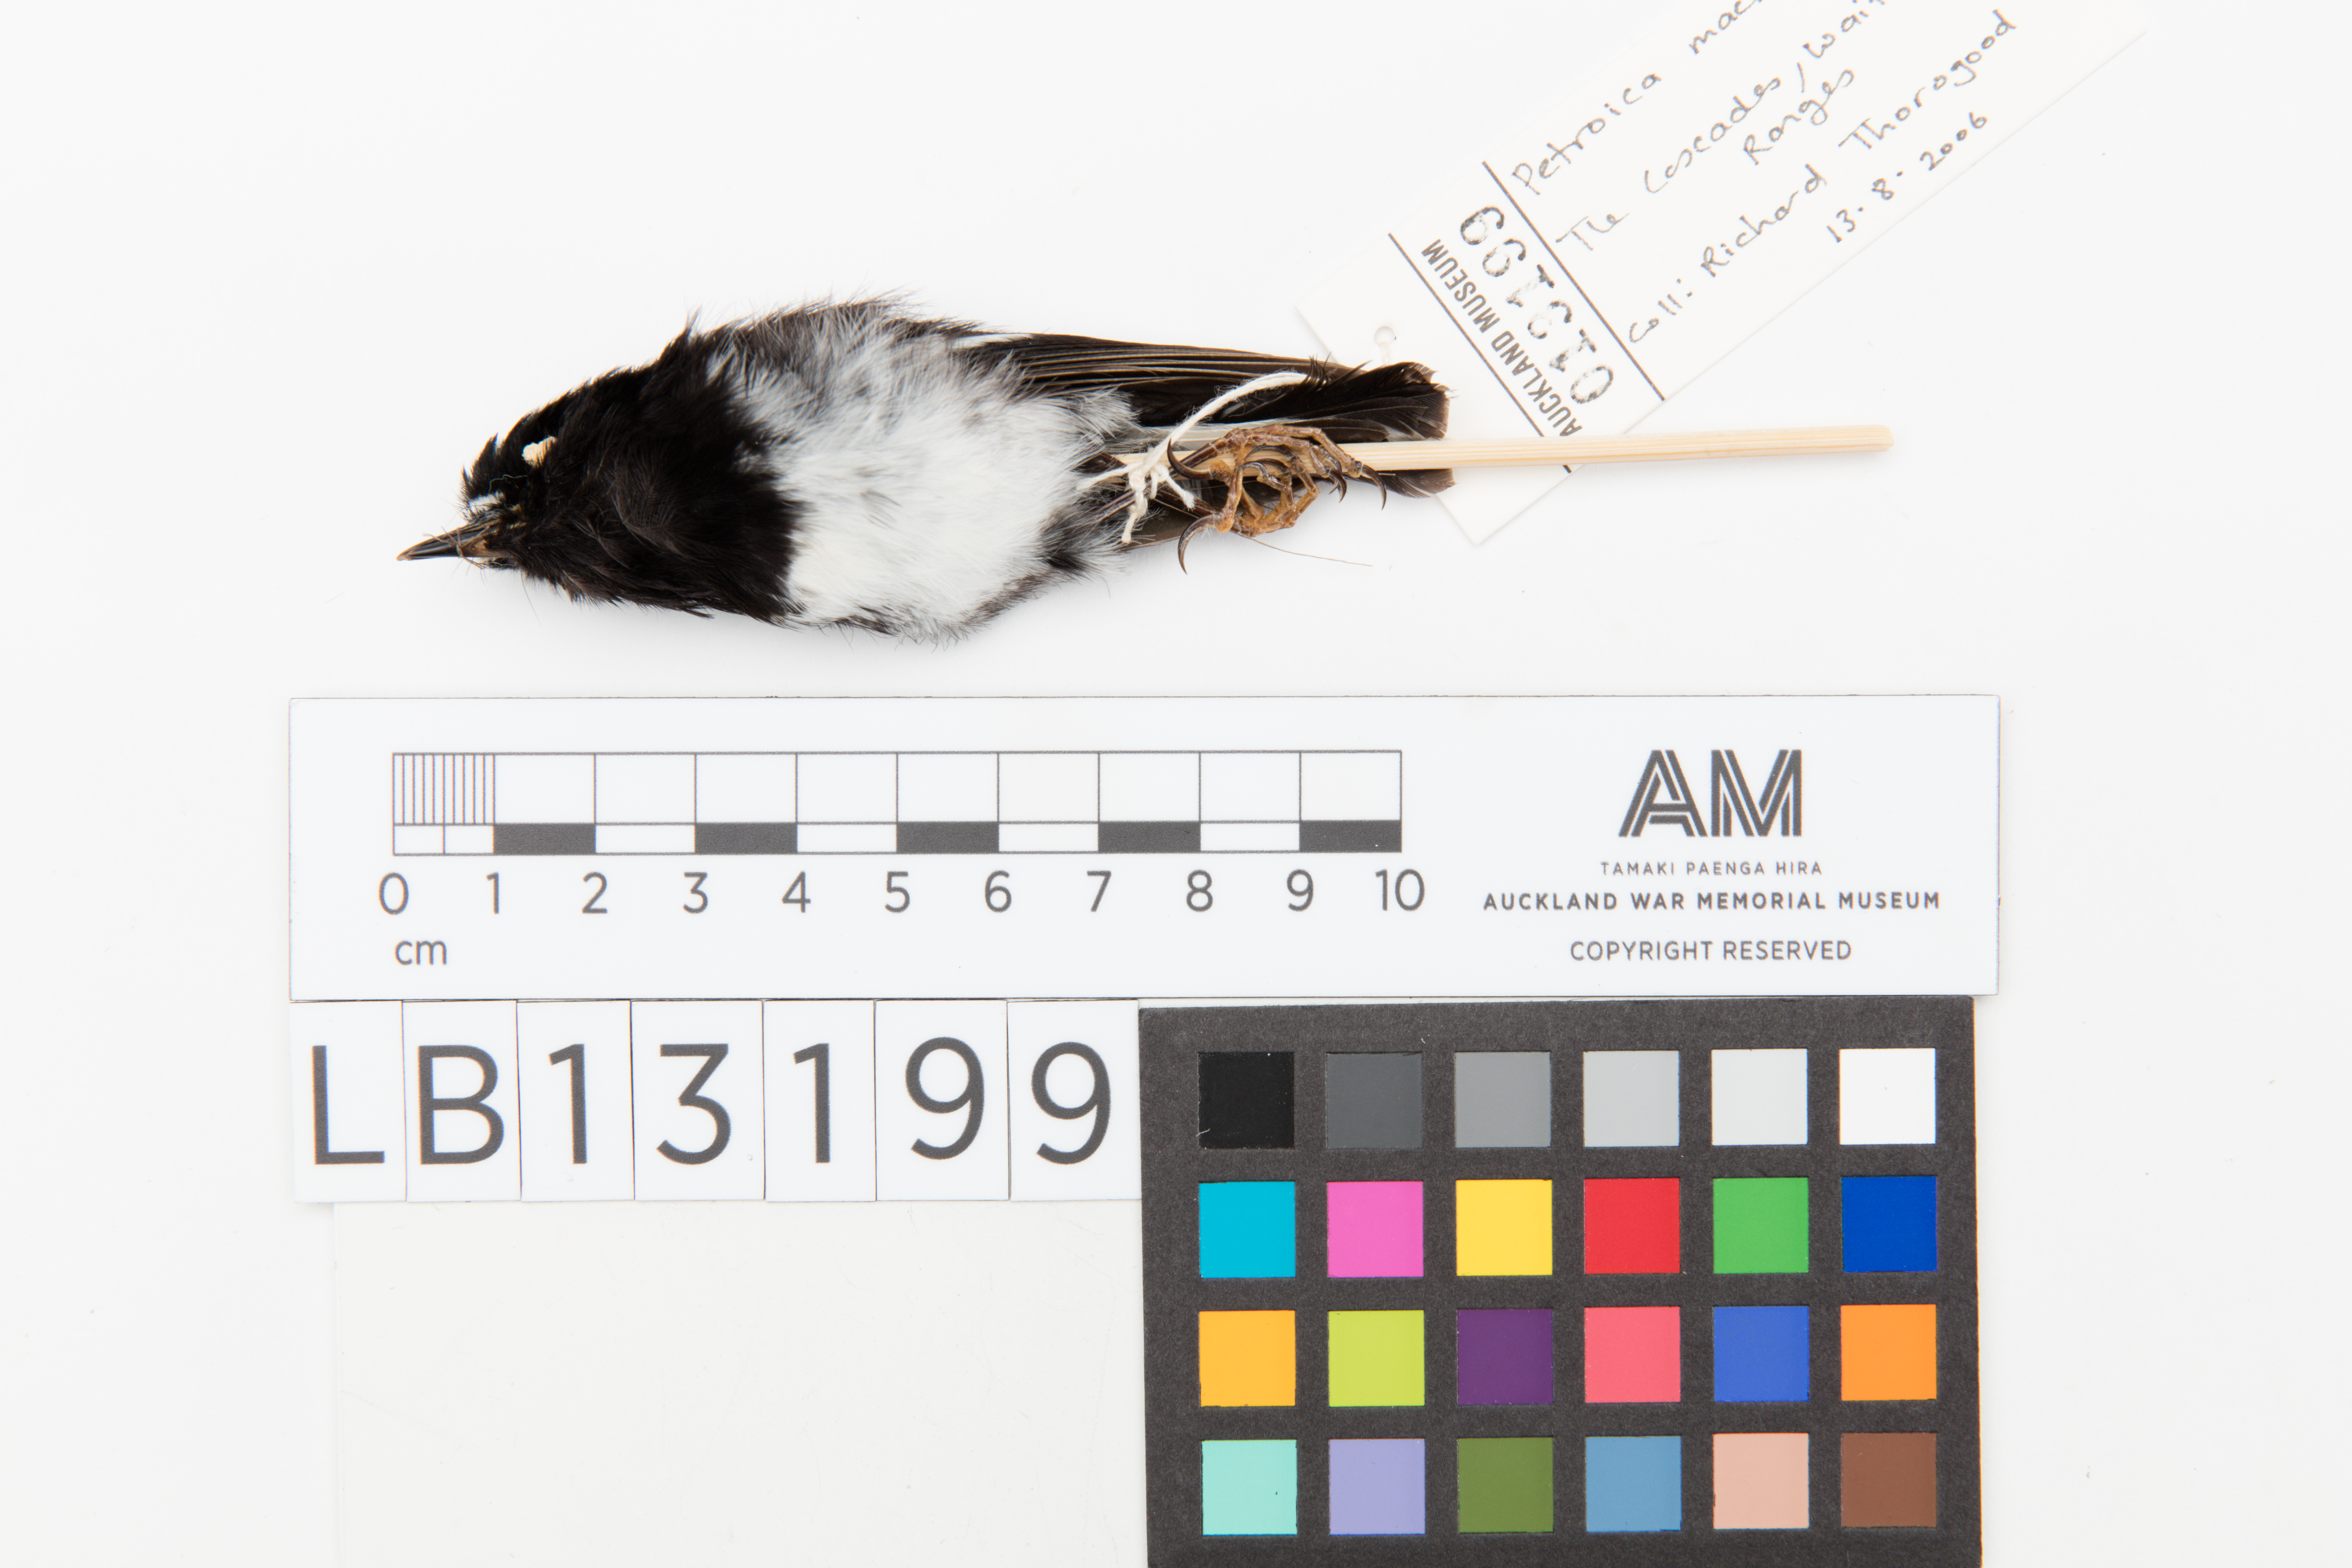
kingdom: Animalia
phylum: Chordata
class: Aves
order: Passeriformes
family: Petroicidae
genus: Petroica
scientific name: Petroica macrocephala
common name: Tomtit
